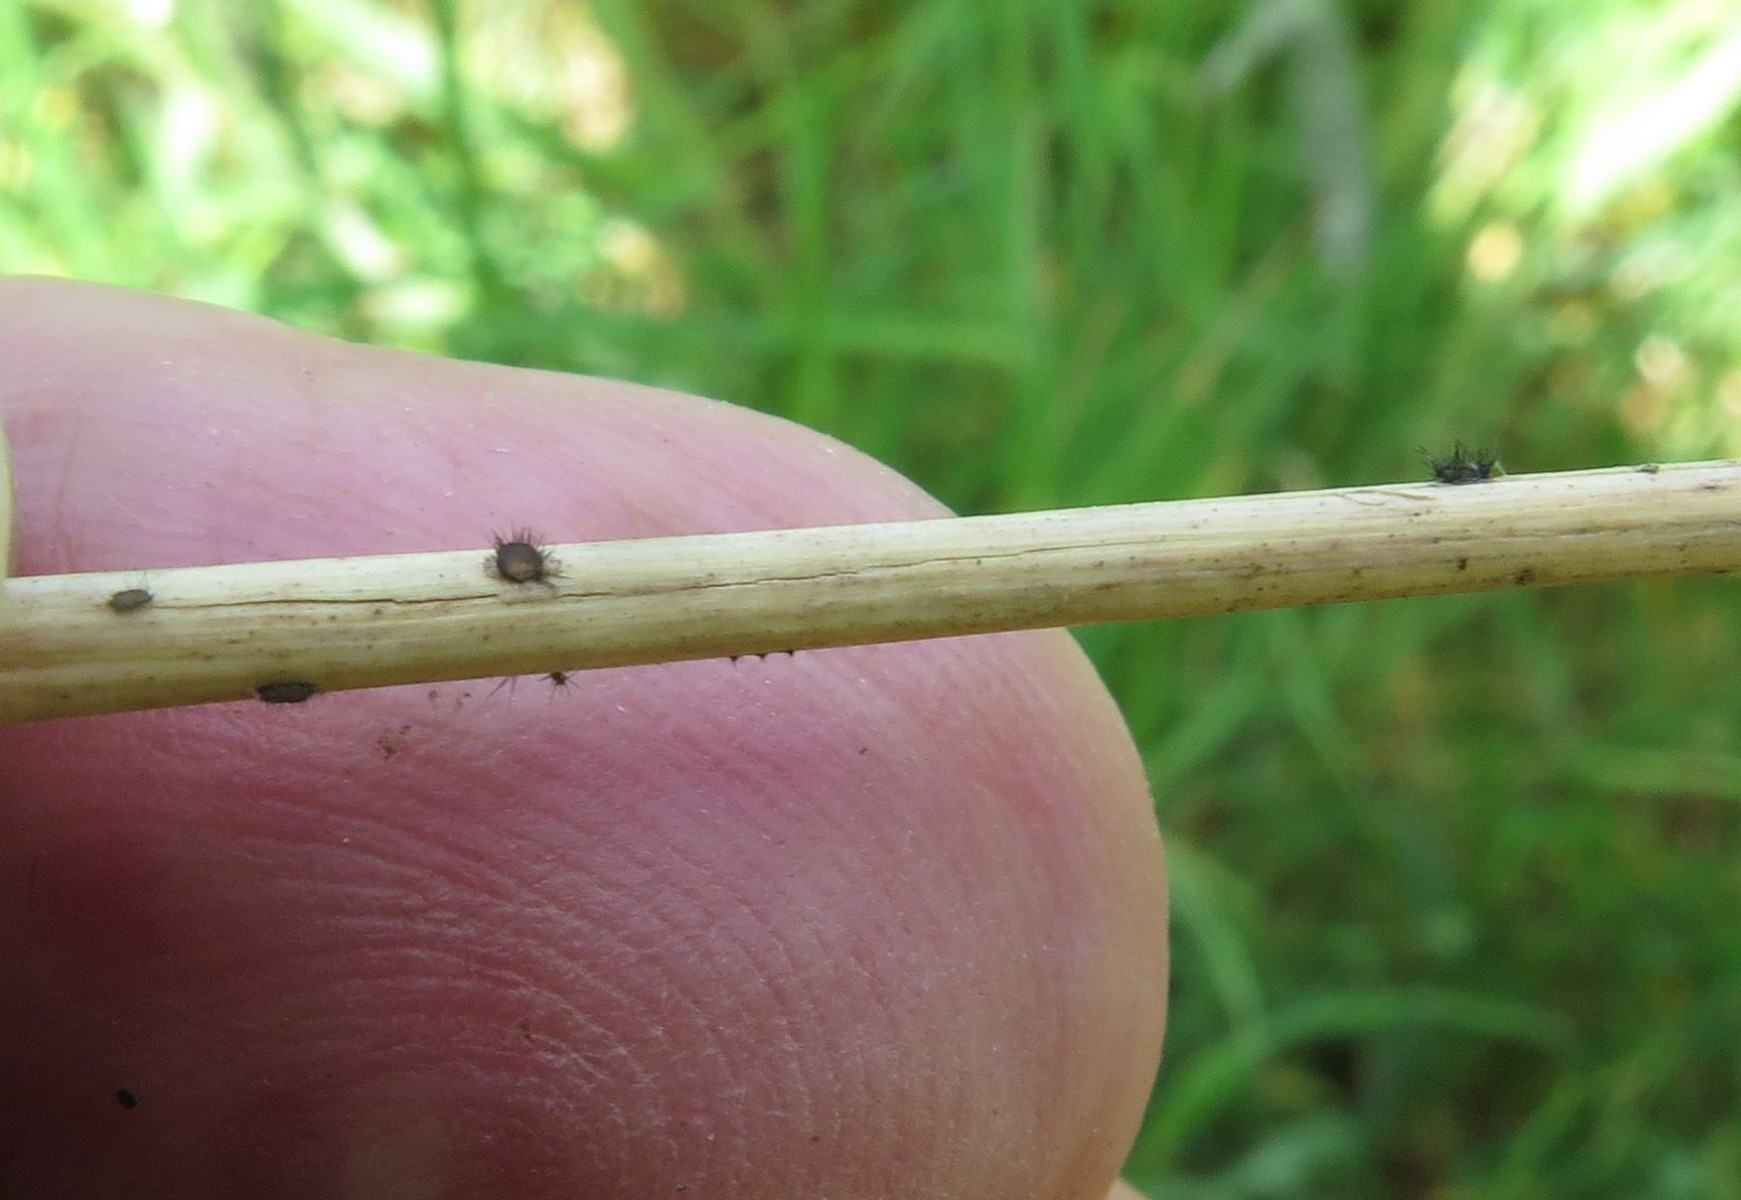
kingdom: Fungi
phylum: Ascomycota
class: Dothideomycetes
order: Pleosporales
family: Periconiaceae
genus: Periconia
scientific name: Periconia hispidula
